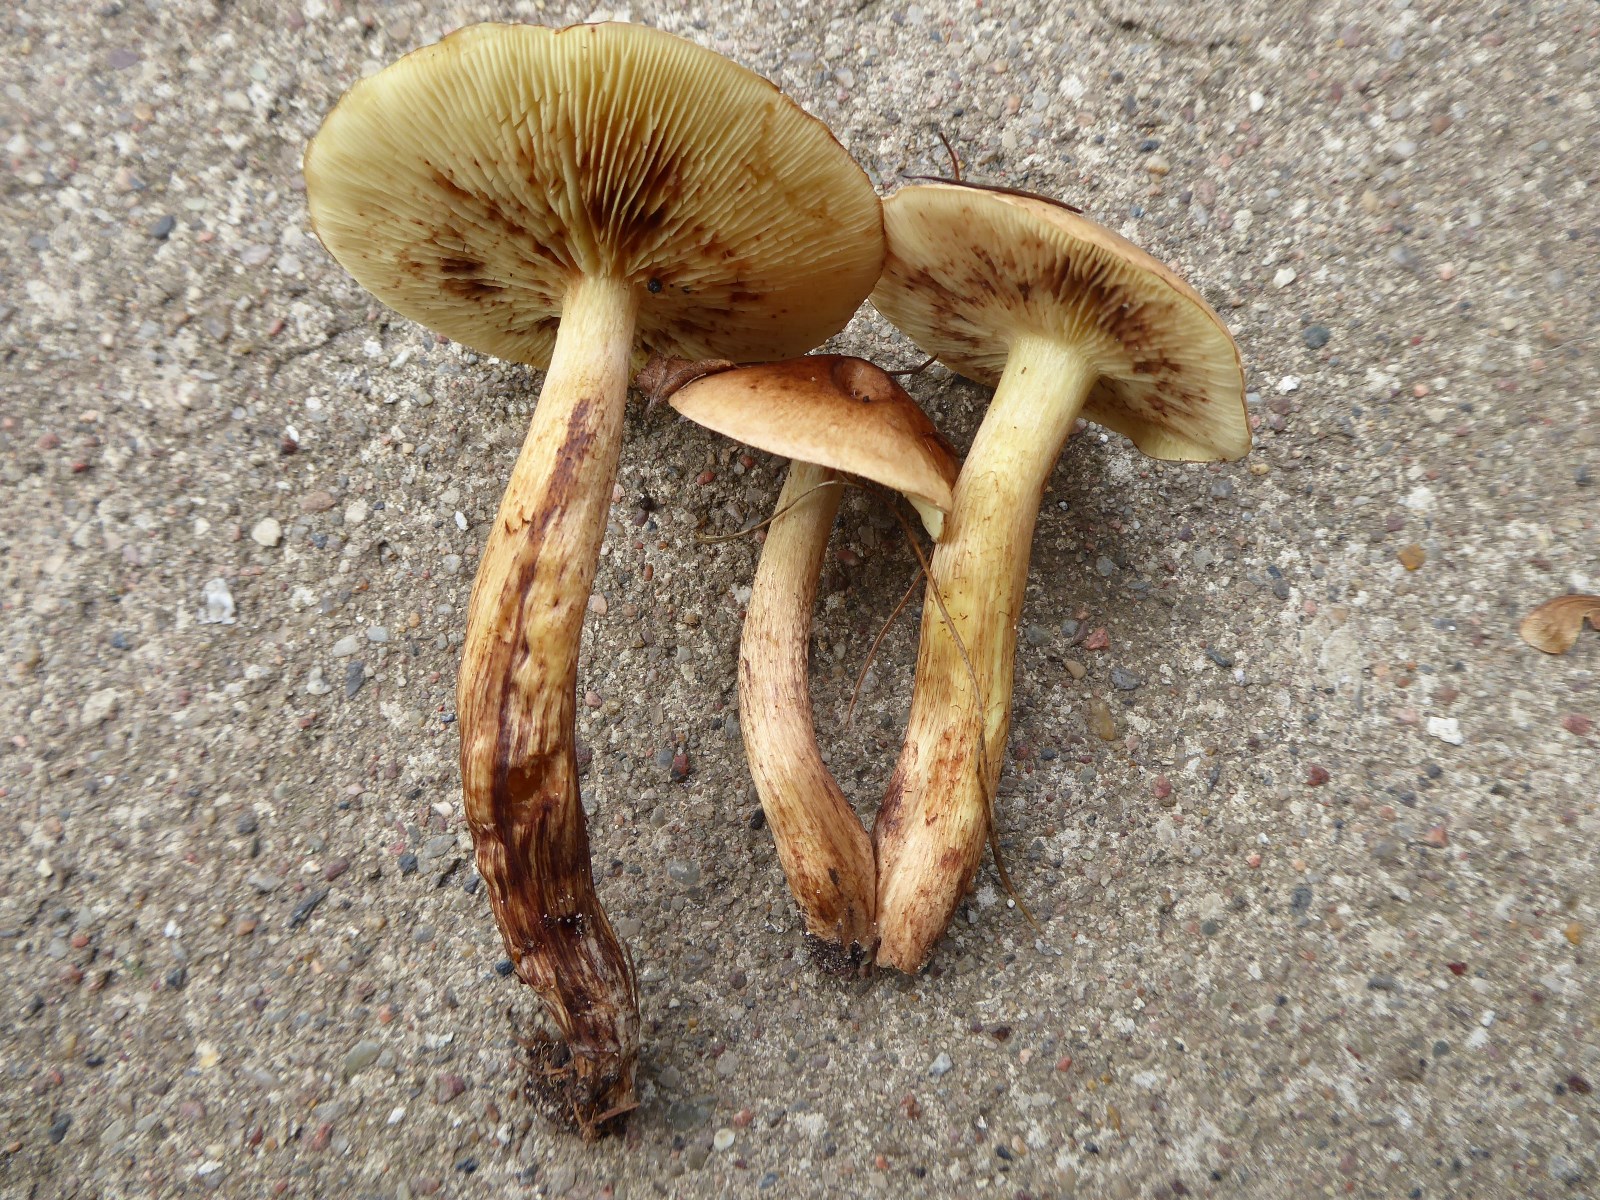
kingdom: Fungi
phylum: Basidiomycota
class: Agaricomycetes
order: Agaricales
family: Tricholomataceae
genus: Tricholoma
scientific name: Tricholoma fulvum
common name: birke-ridderhat
